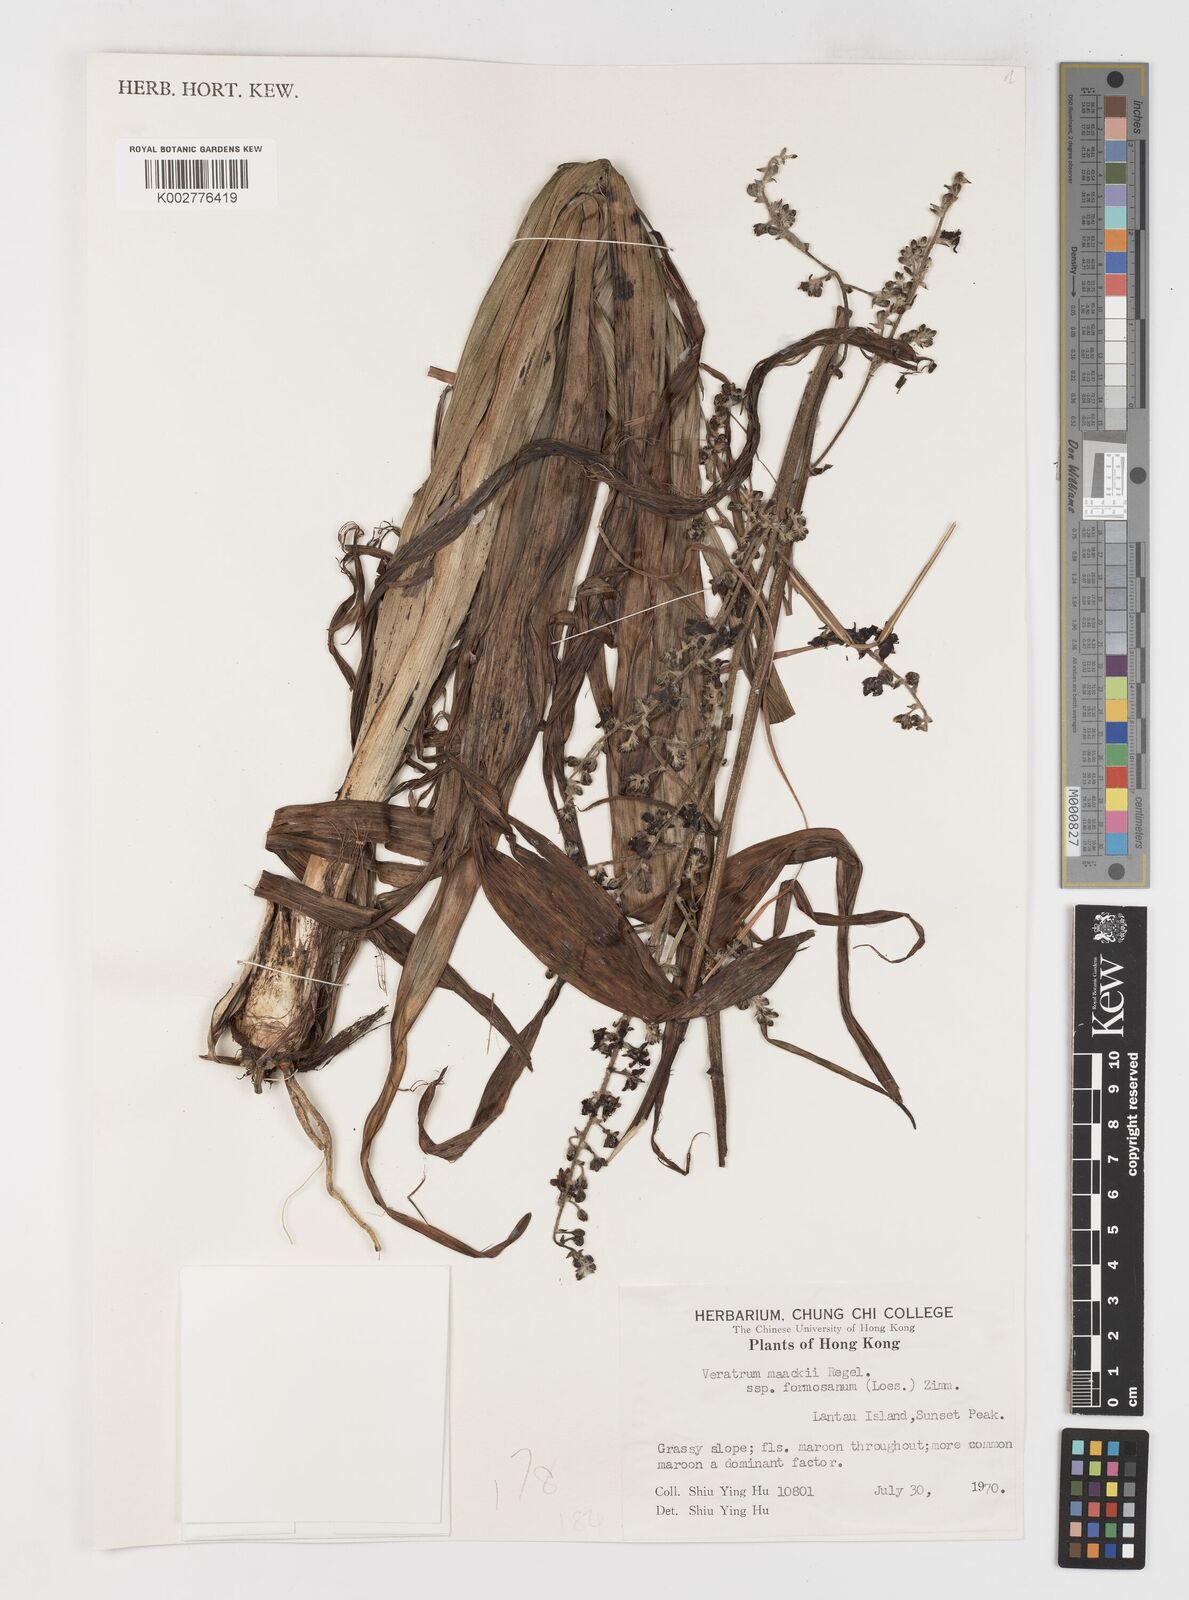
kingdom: Plantae
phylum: Tracheophyta
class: Liliopsida
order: Liliales
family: Melanthiaceae
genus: Veratrum
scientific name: Veratrum maackii
